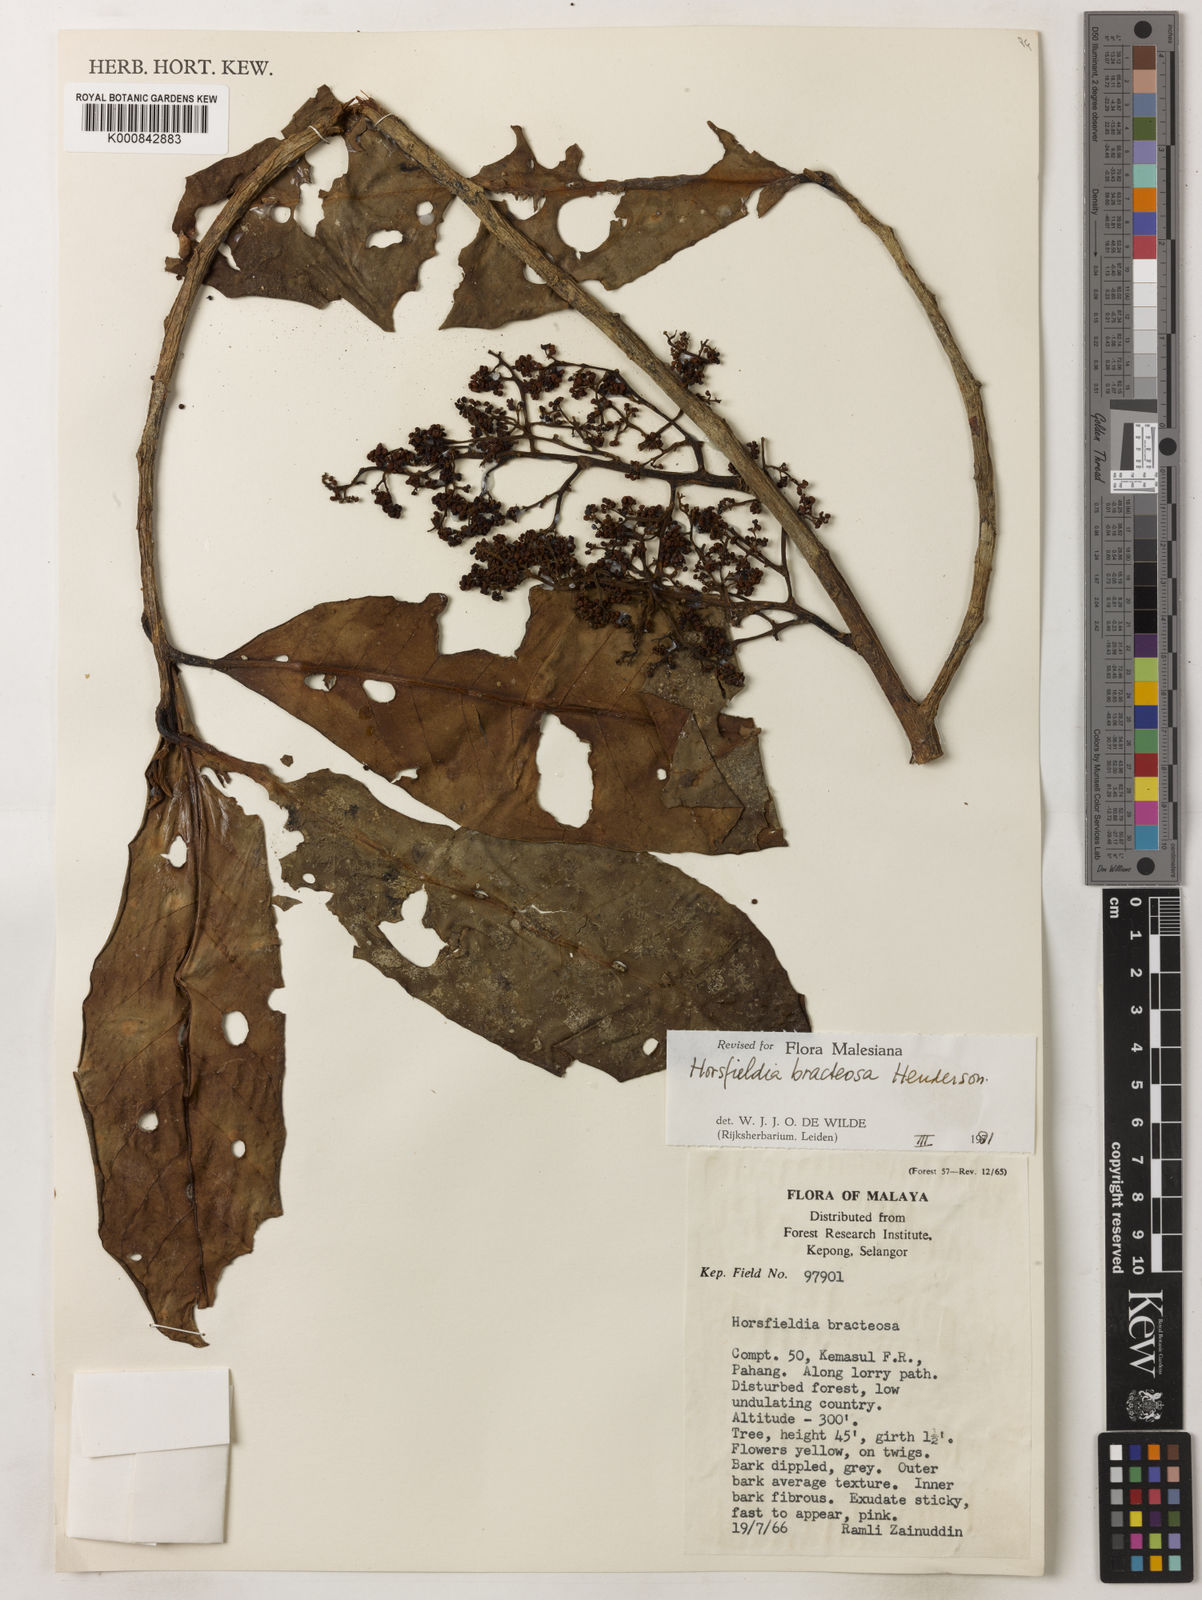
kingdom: Plantae
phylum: Tracheophyta
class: Magnoliopsida
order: Magnoliales
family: Myristicaceae
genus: Horsfieldia
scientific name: Horsfieldia sucosa
